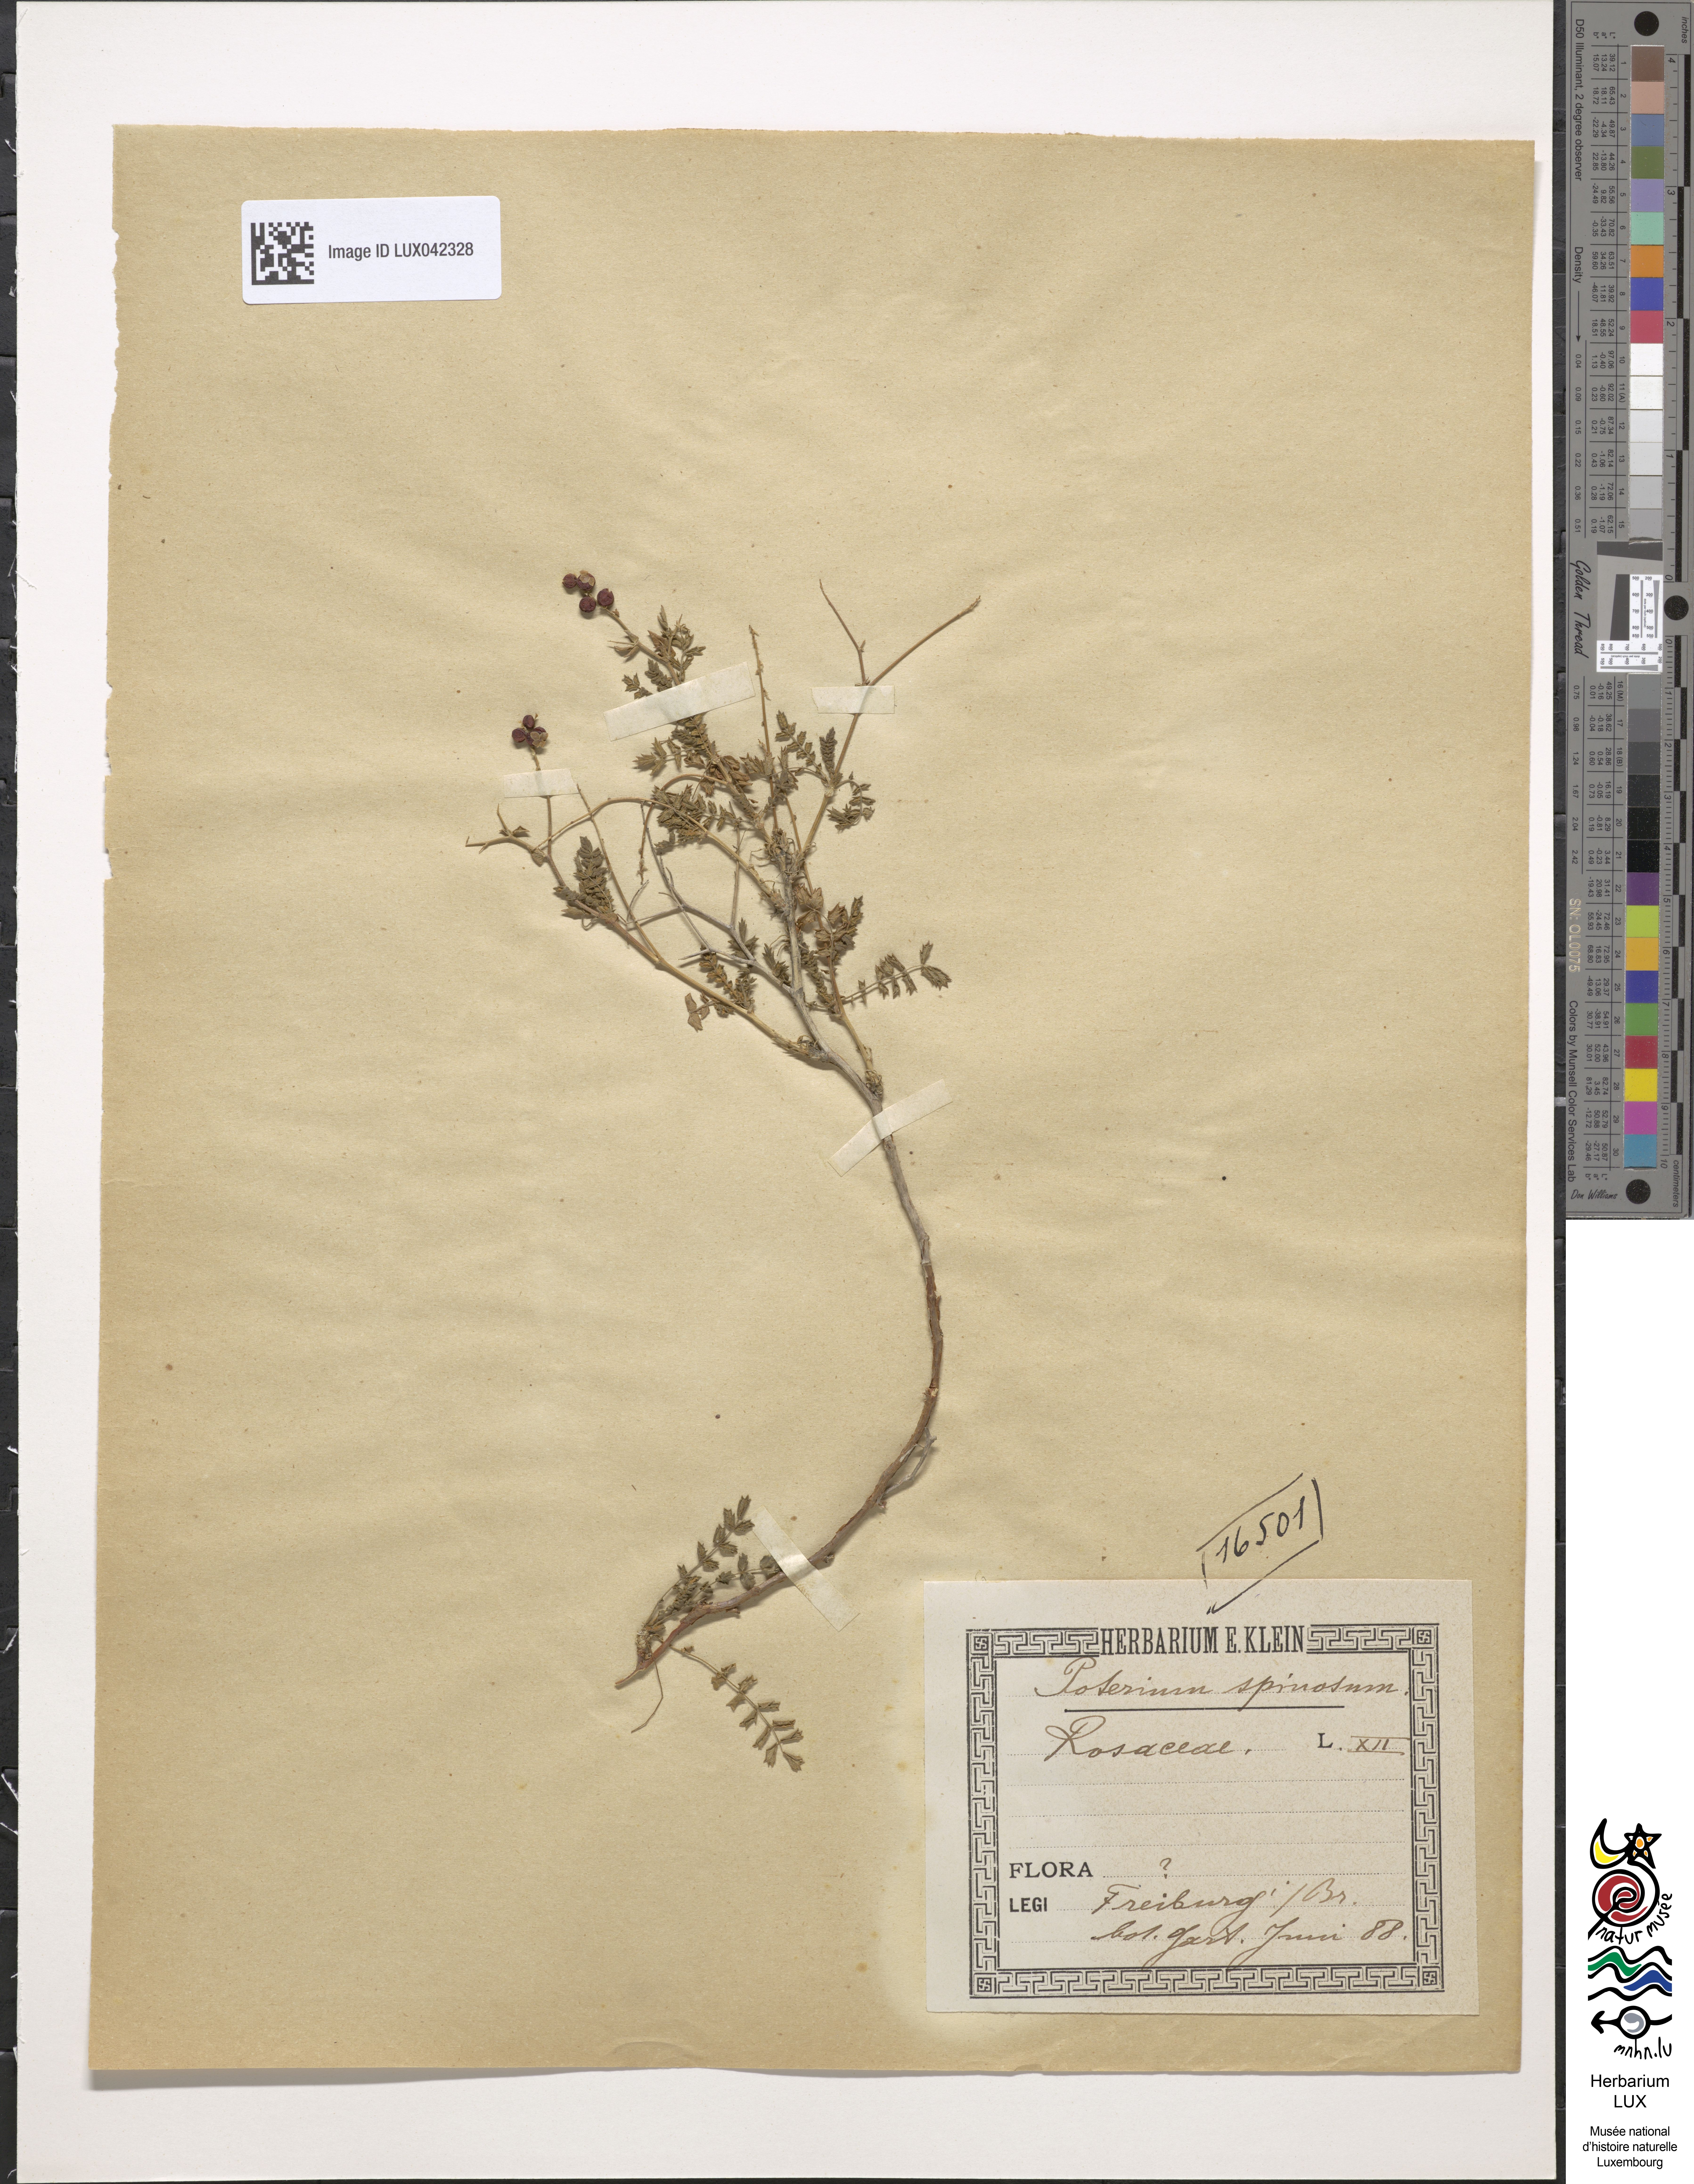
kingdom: Plantae
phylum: Tracheophyta
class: Magnoliopsida
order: Rosales
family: Rosaceae
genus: Sarcopoterium
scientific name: Sarcopoterium spinosum
